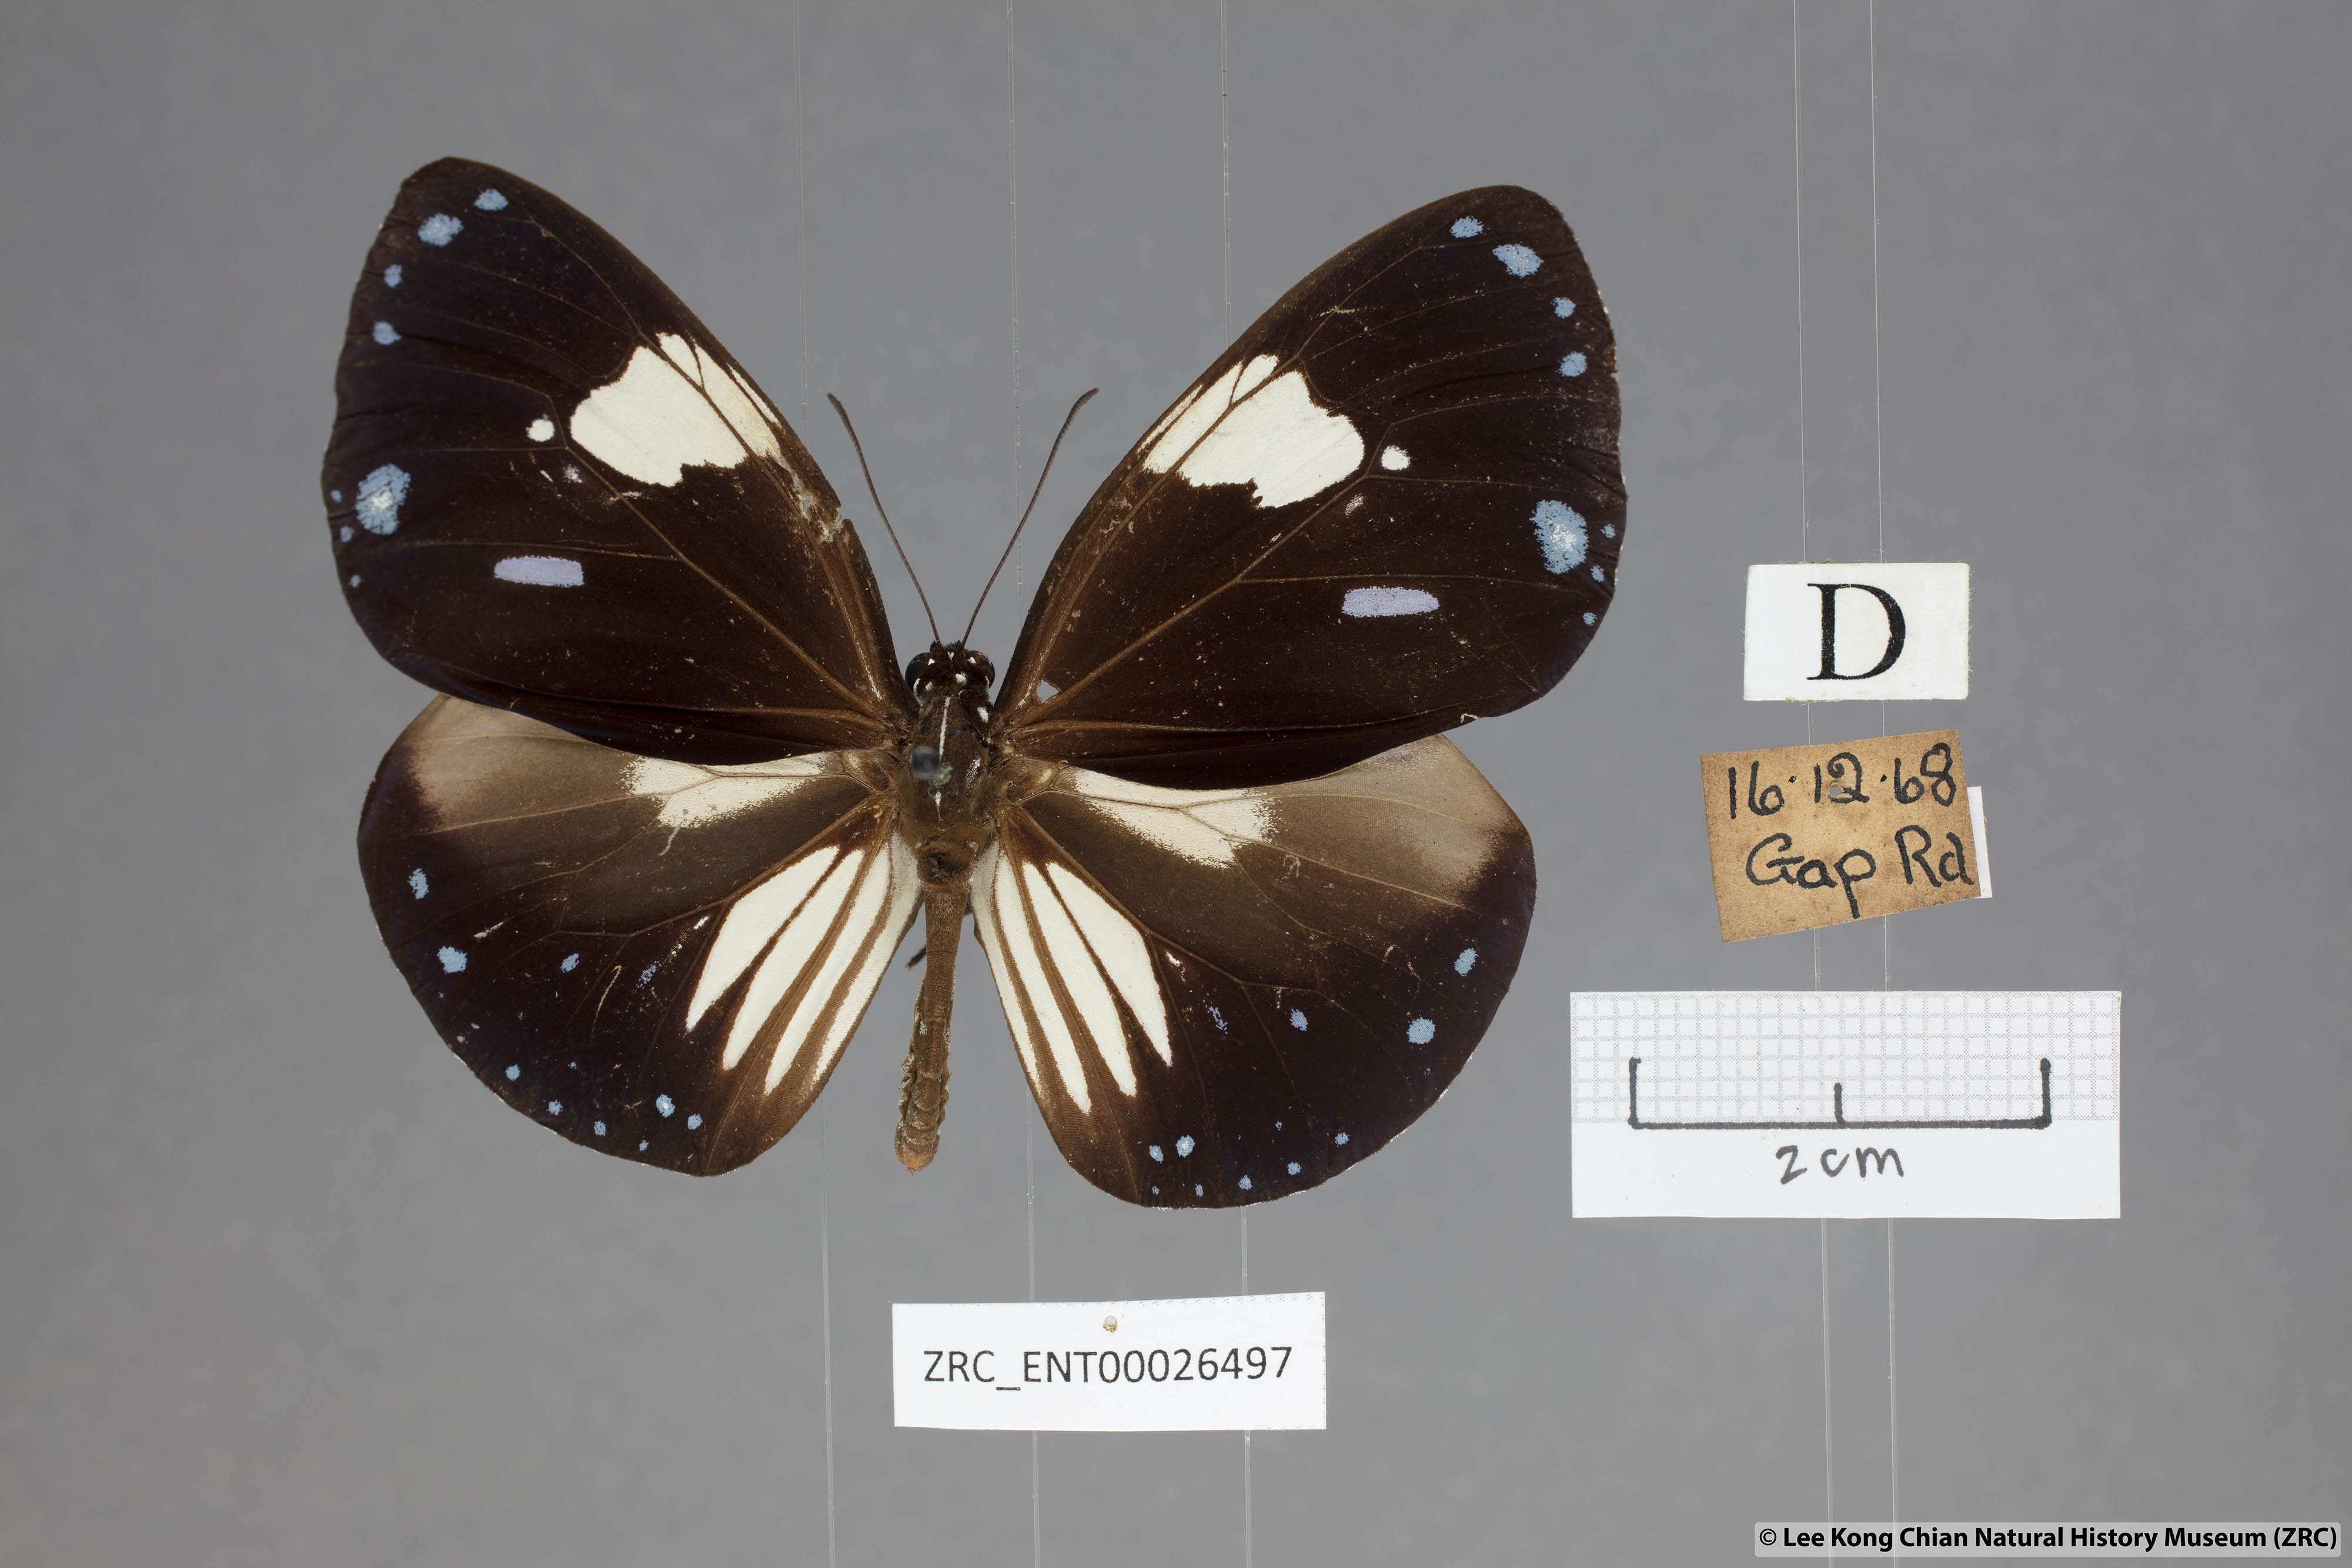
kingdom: Animalia
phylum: Arthropoda
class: Insecta
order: Lepidoptera
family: Nymphalidae
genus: Euploea
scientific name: Euploea radamanthus
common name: Magpie crow butterfly
